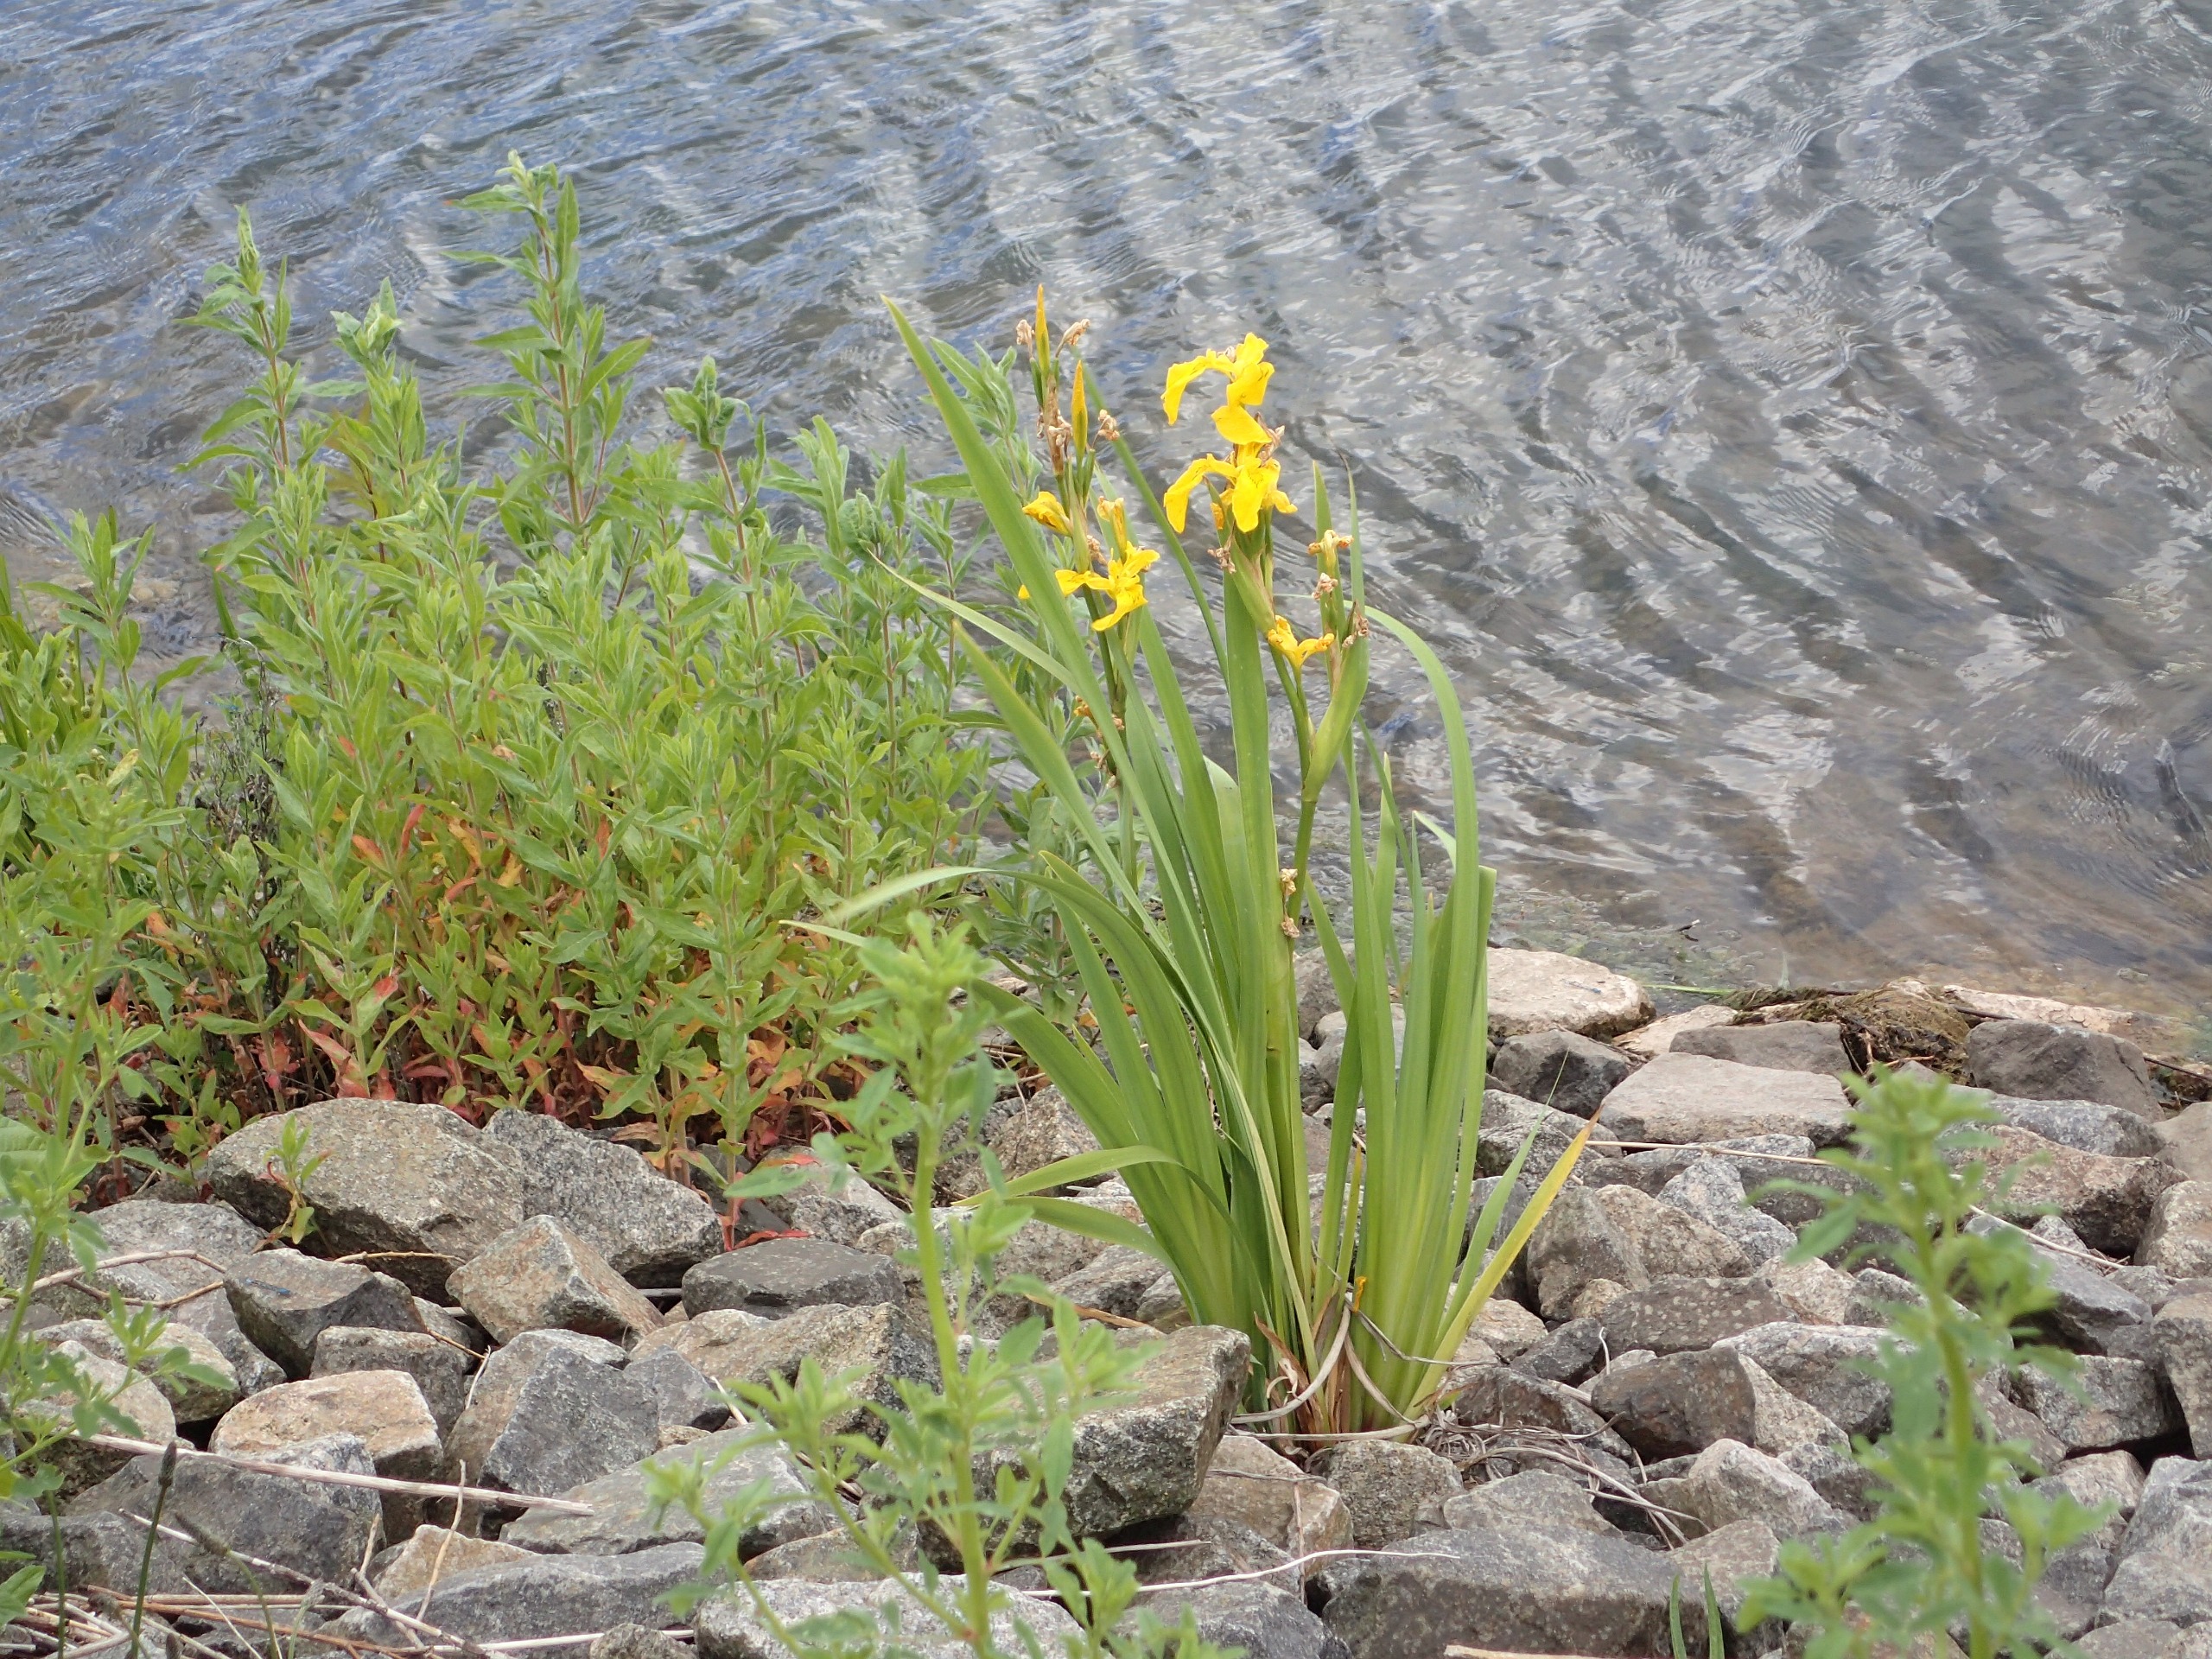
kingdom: Plantae
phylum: Tracheophyta
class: Liliopsida
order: Asparagales
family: Iridaceae
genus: Iris
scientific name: Iris pseudacorus
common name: Gul iris
